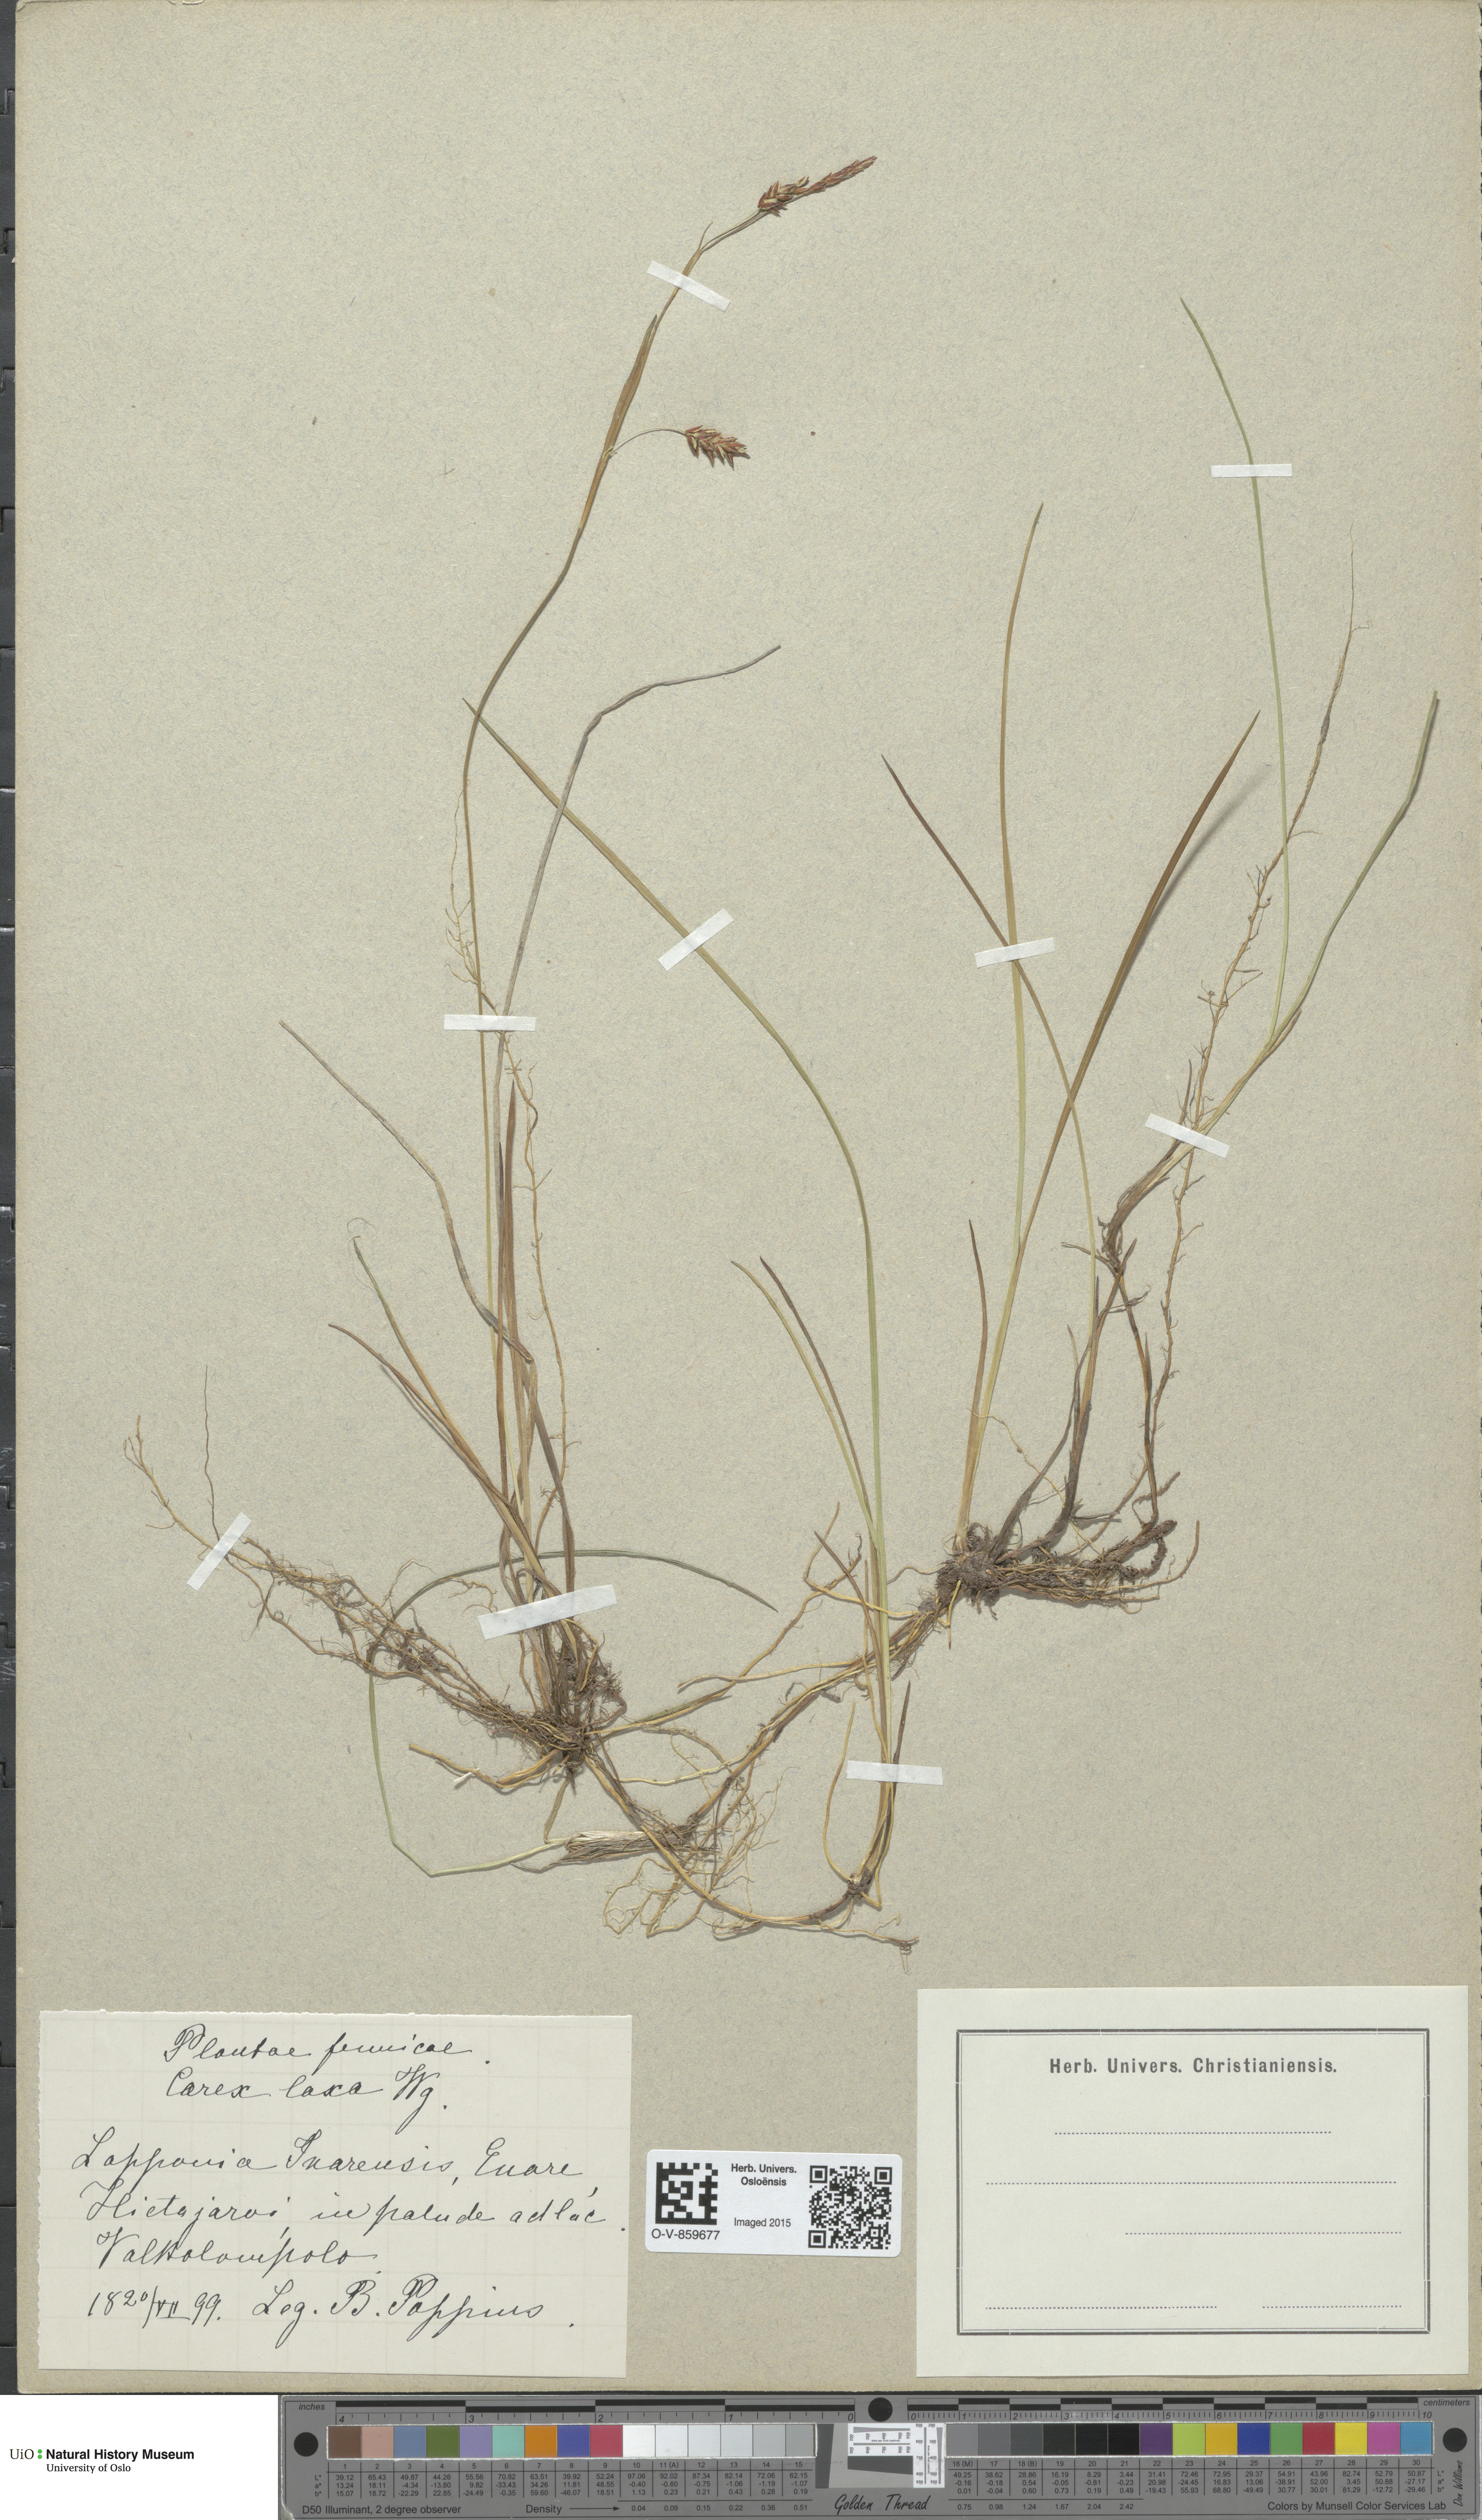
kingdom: Plantae
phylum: Tracheophyta
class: Liliopsida
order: Poales
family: Cyperaceae
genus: Carex
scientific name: Carex laxa
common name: Weak sedge
